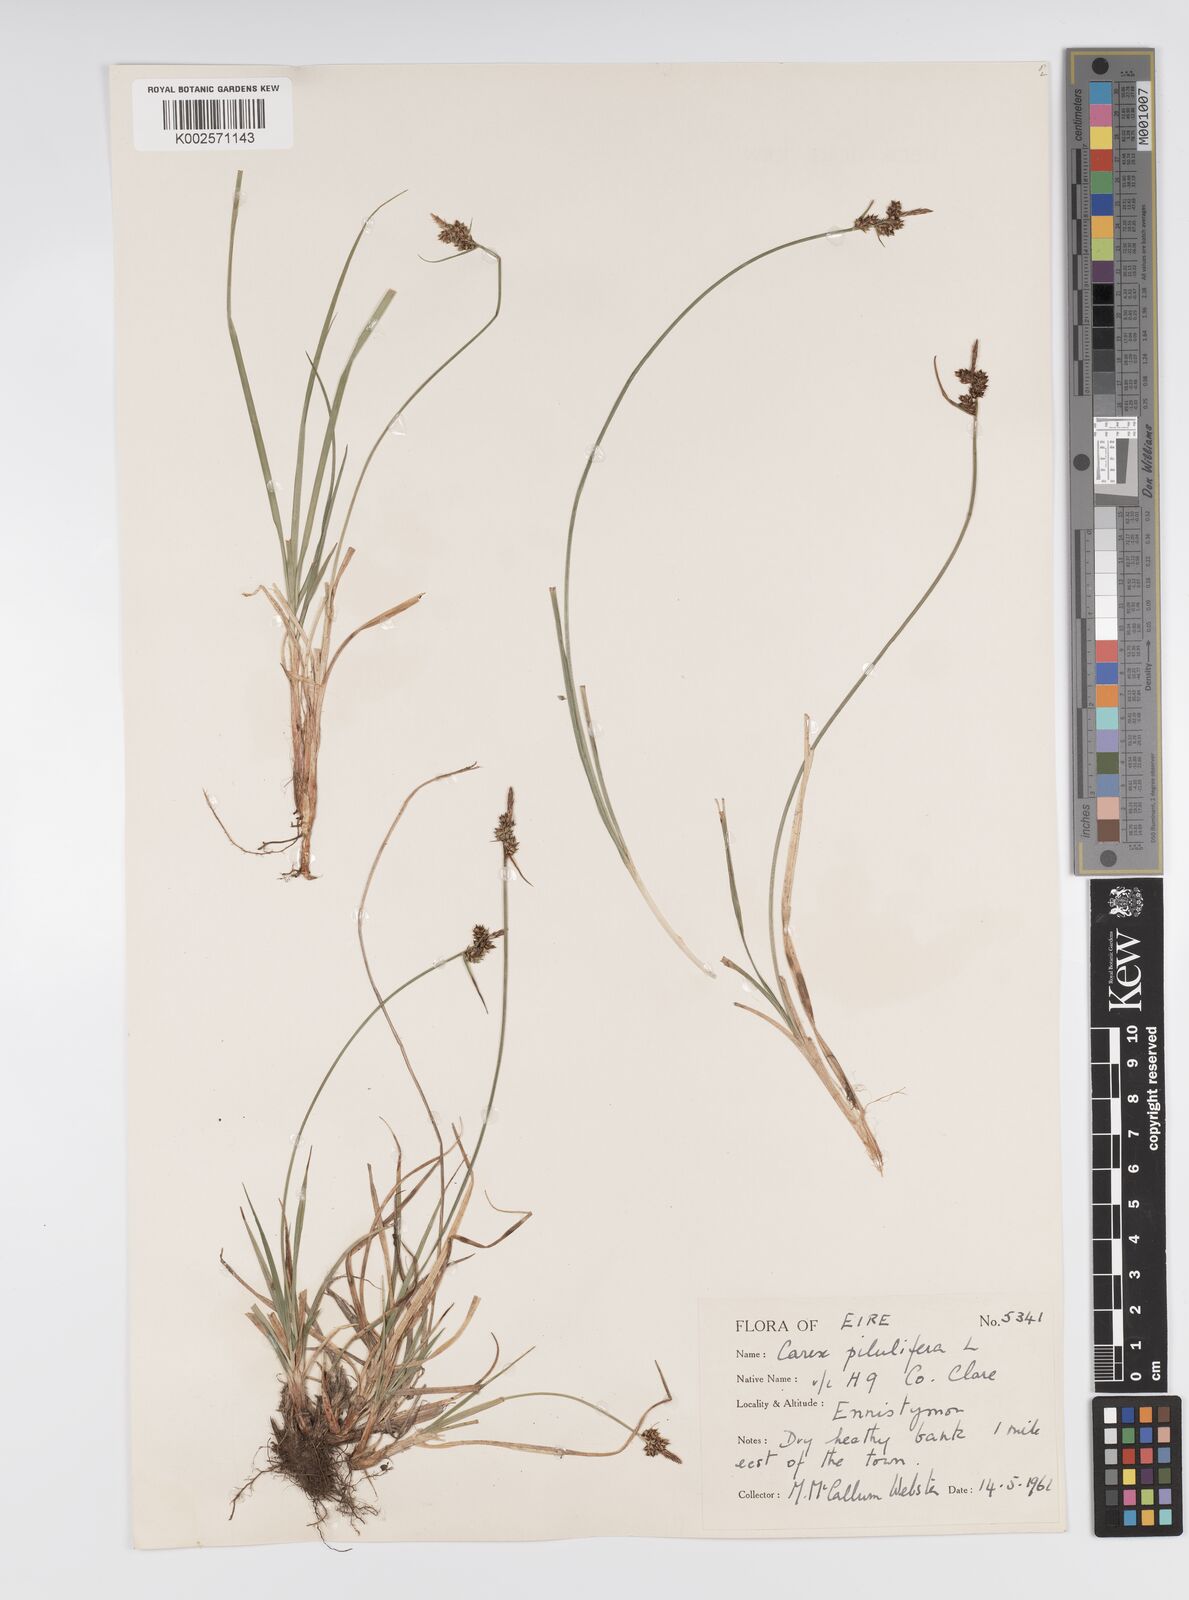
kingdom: Plantae
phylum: Tracheophyta
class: Liliopsida
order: Poales
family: Cyperaceae
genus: Carex
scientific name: Carex pilulifera
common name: Pill sedge
